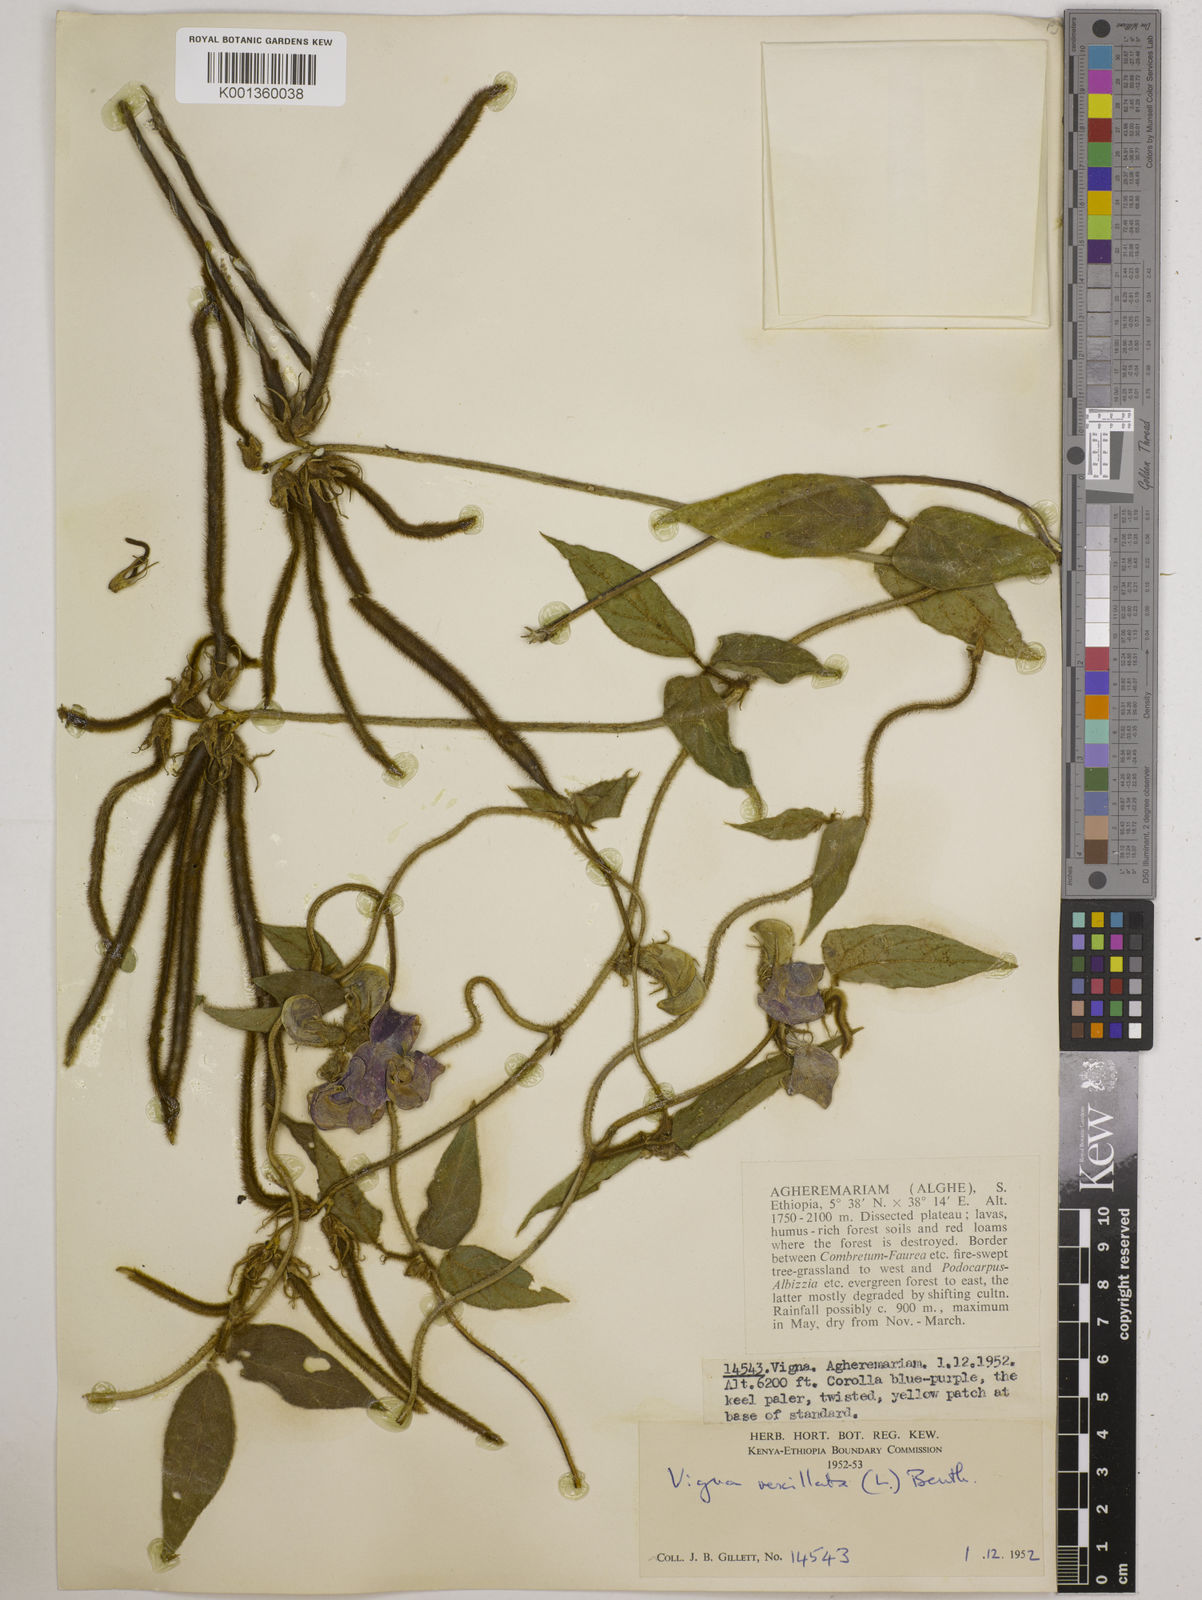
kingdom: Plantae
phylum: Tracheophyta
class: Magnoliopsida
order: Fabales
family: Fabaceae
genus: Vigna
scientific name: Vigna vexillata
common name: Zombi pea
